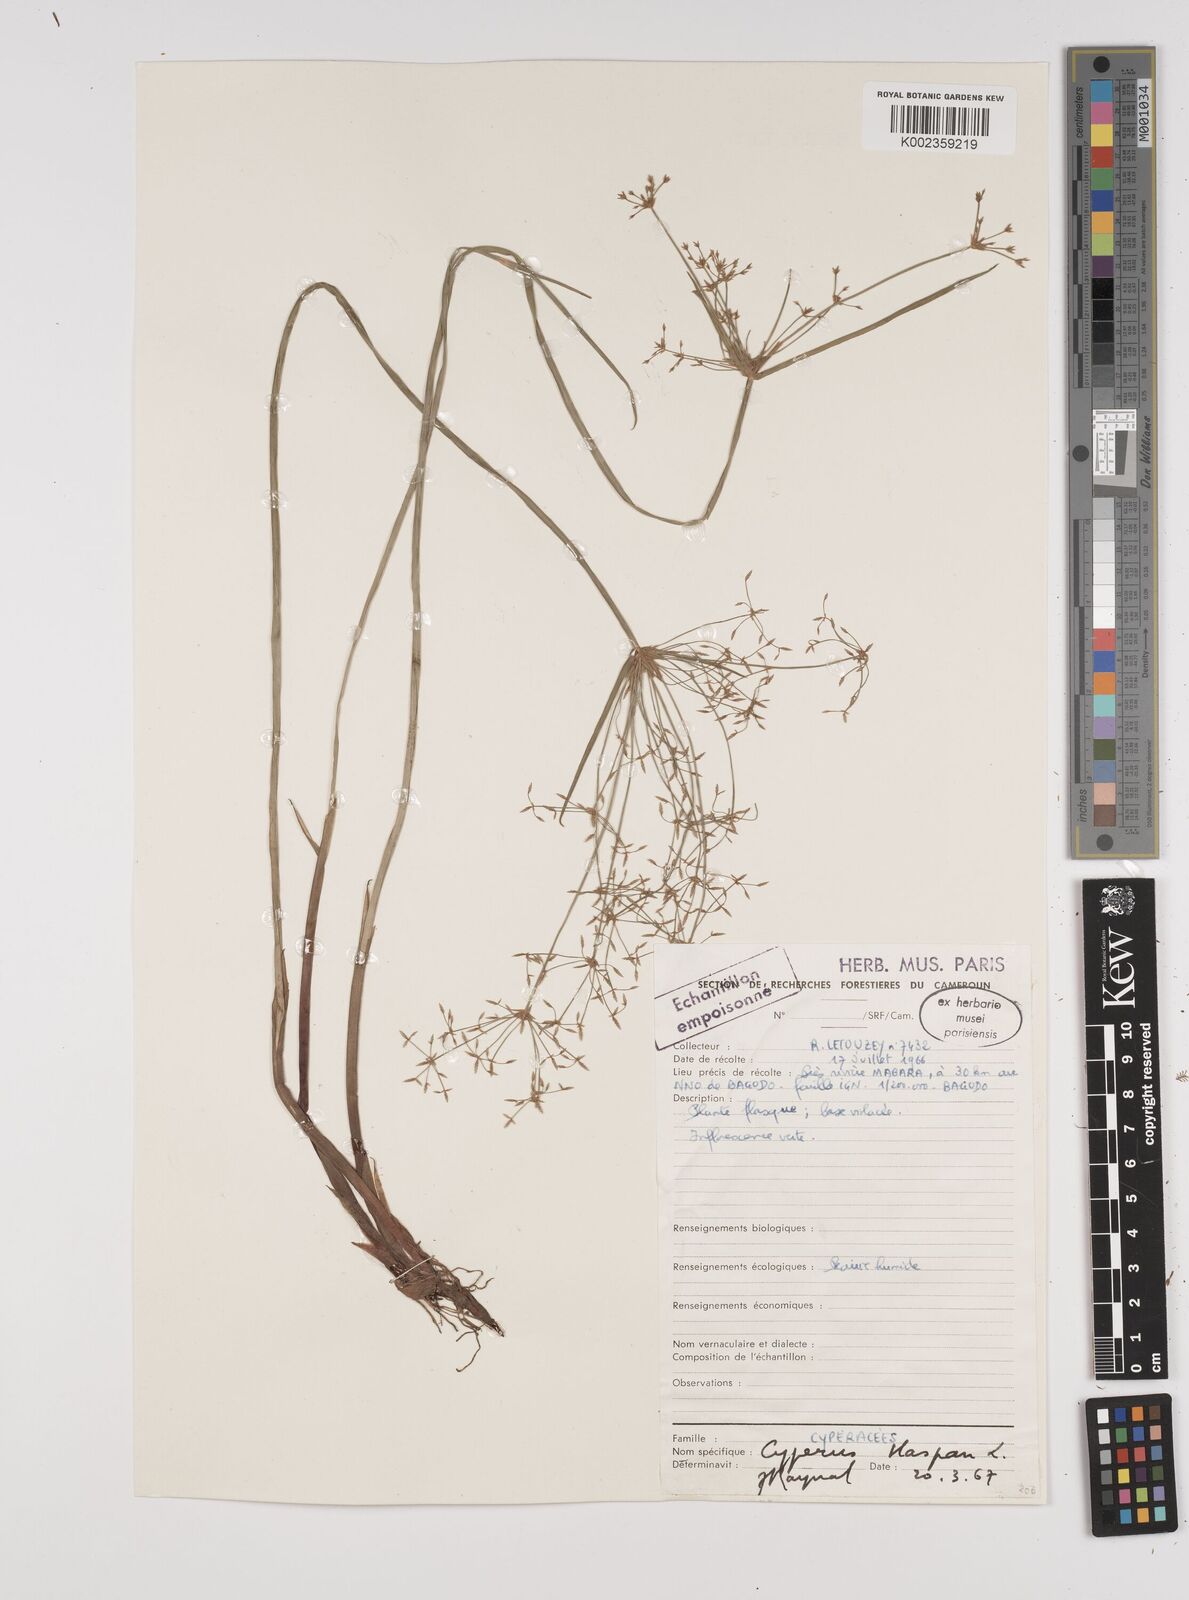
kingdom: Plantae
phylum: Tracheophyta
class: Liliopsida
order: Poales
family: Cyperaceae
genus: Cyperus
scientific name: Cyperus haspan
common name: Haspan flatsedge
